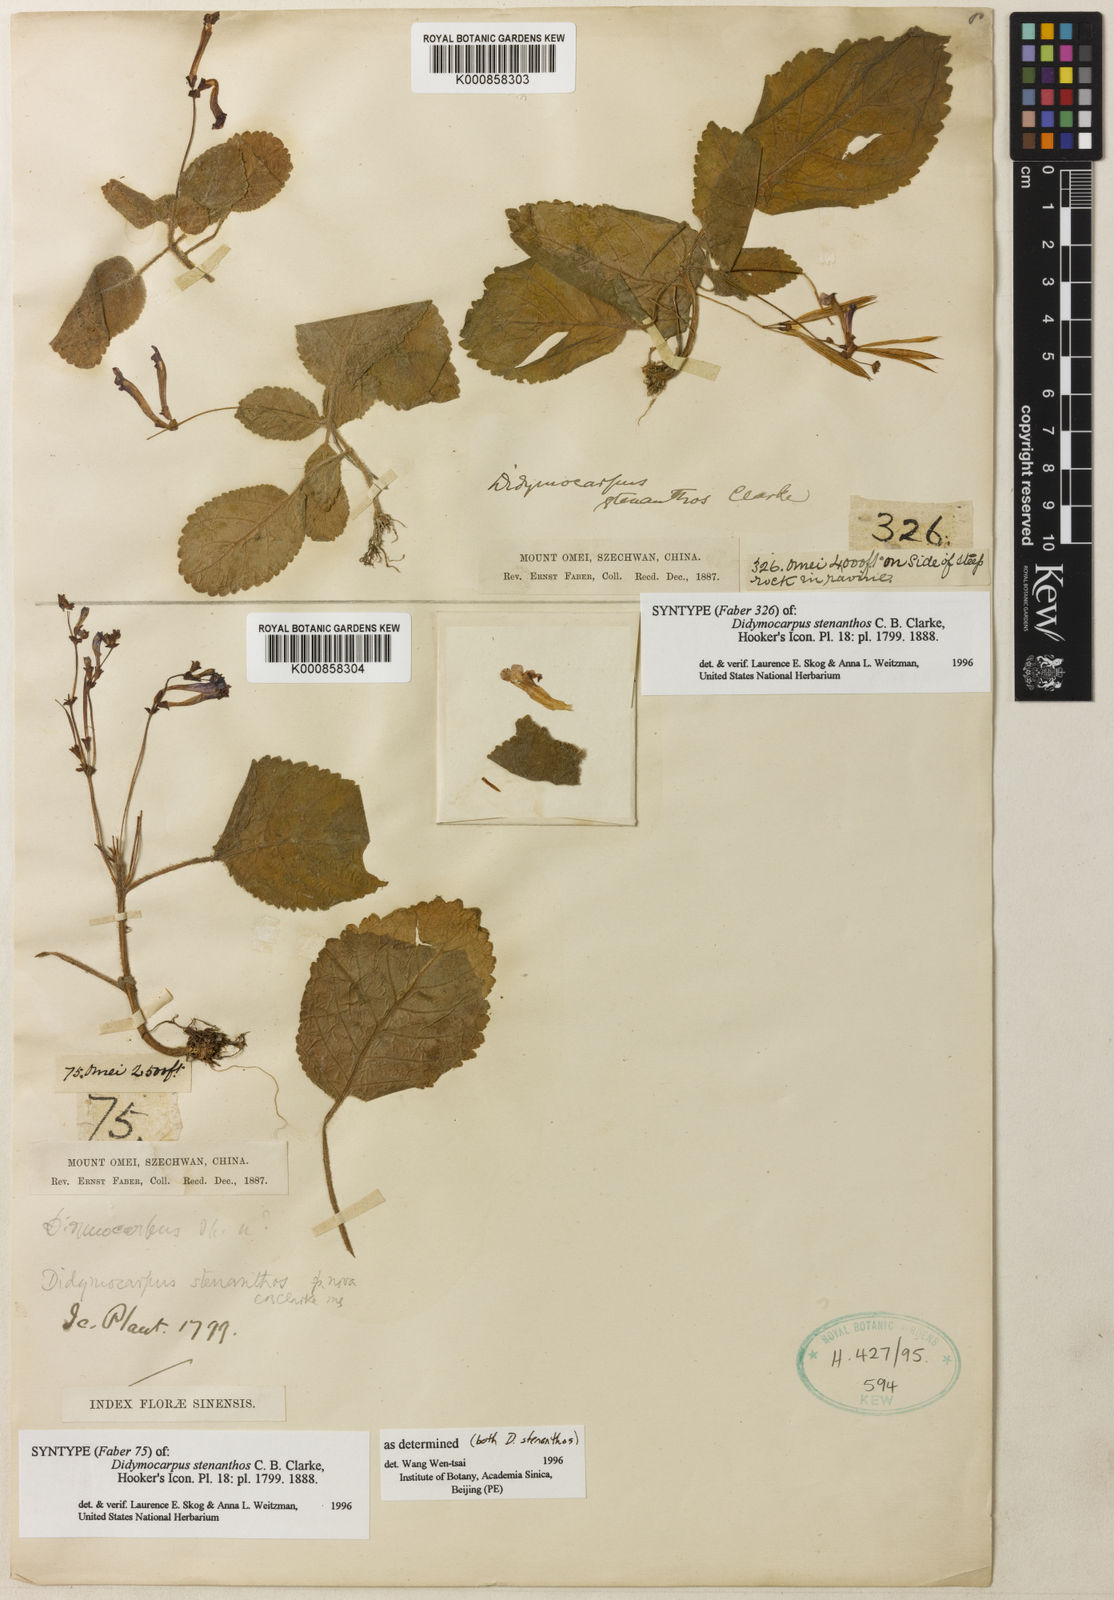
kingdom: Plantae
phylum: Tracheophyta
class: Magnoliopsida
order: Lamiales
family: Gesneriaceae
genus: Didymocarpus
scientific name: Didymocarpus stenanthos
